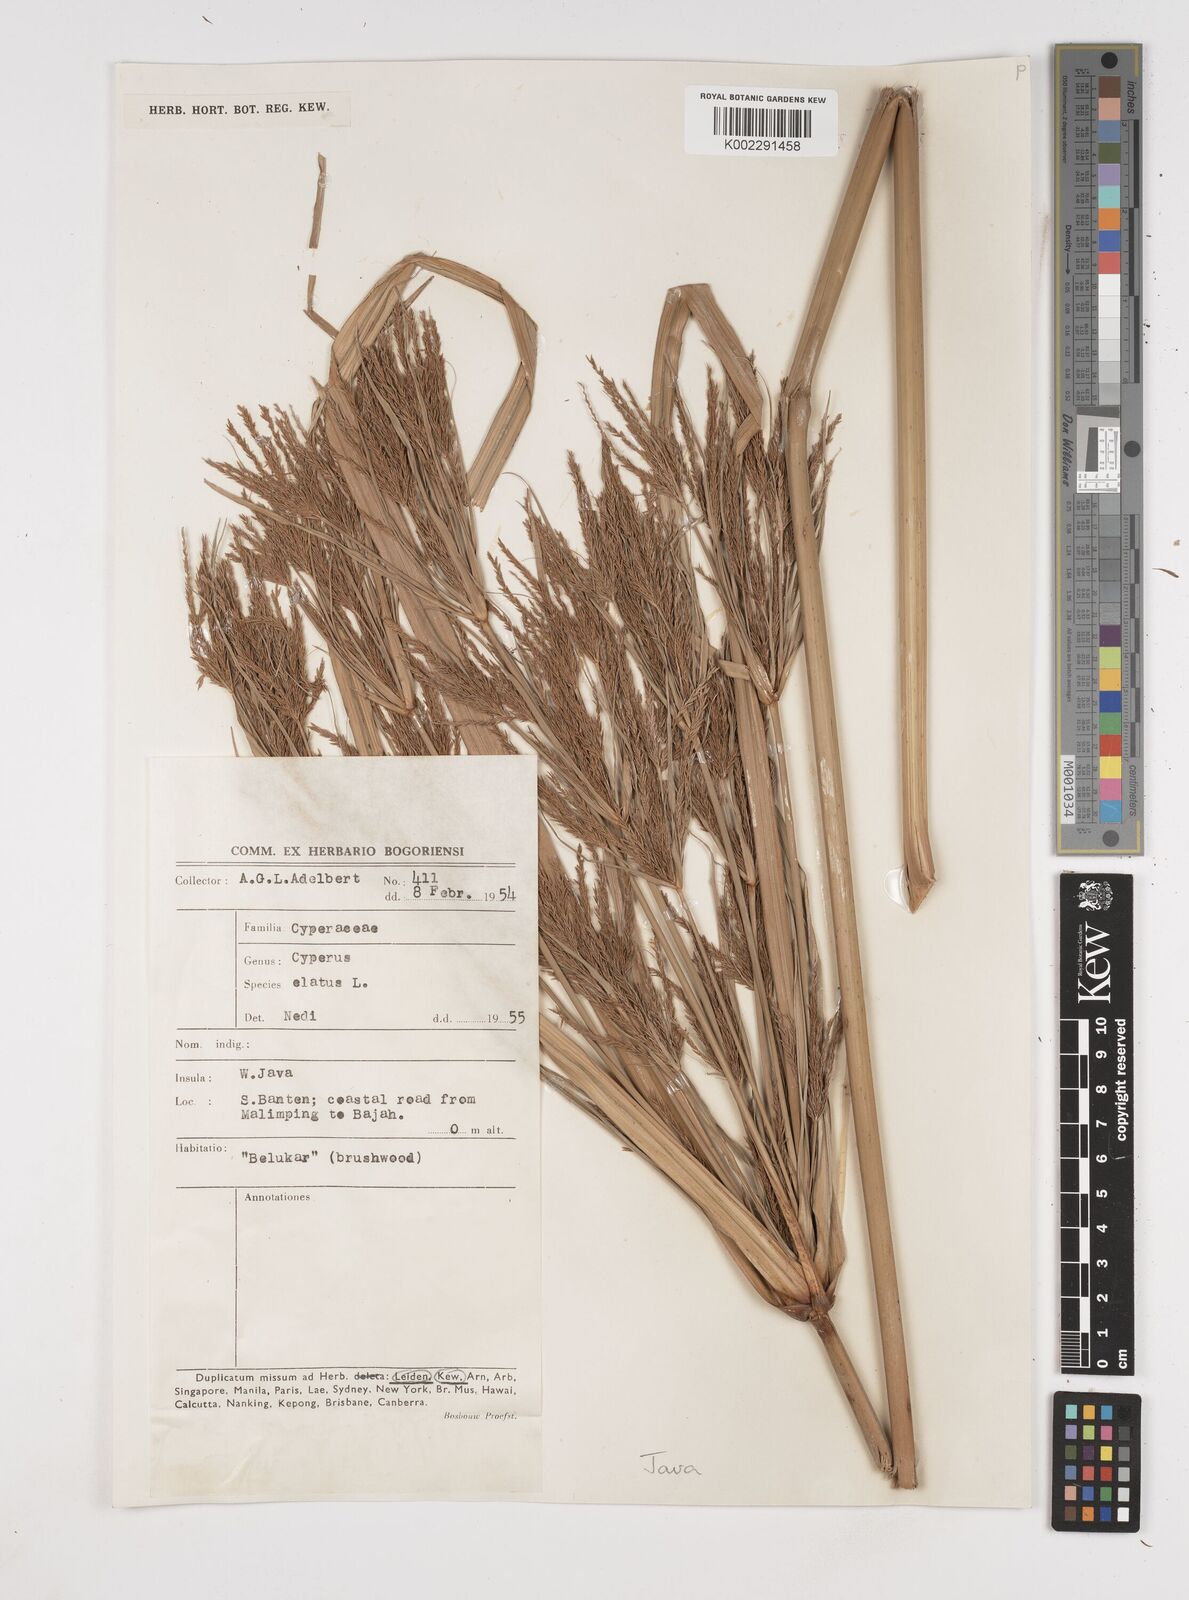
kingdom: Plantae
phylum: Tracheophyta
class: Liliopsida
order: Poales
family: Cyperaceae
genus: Cyperus
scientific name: Cyperus elatus
